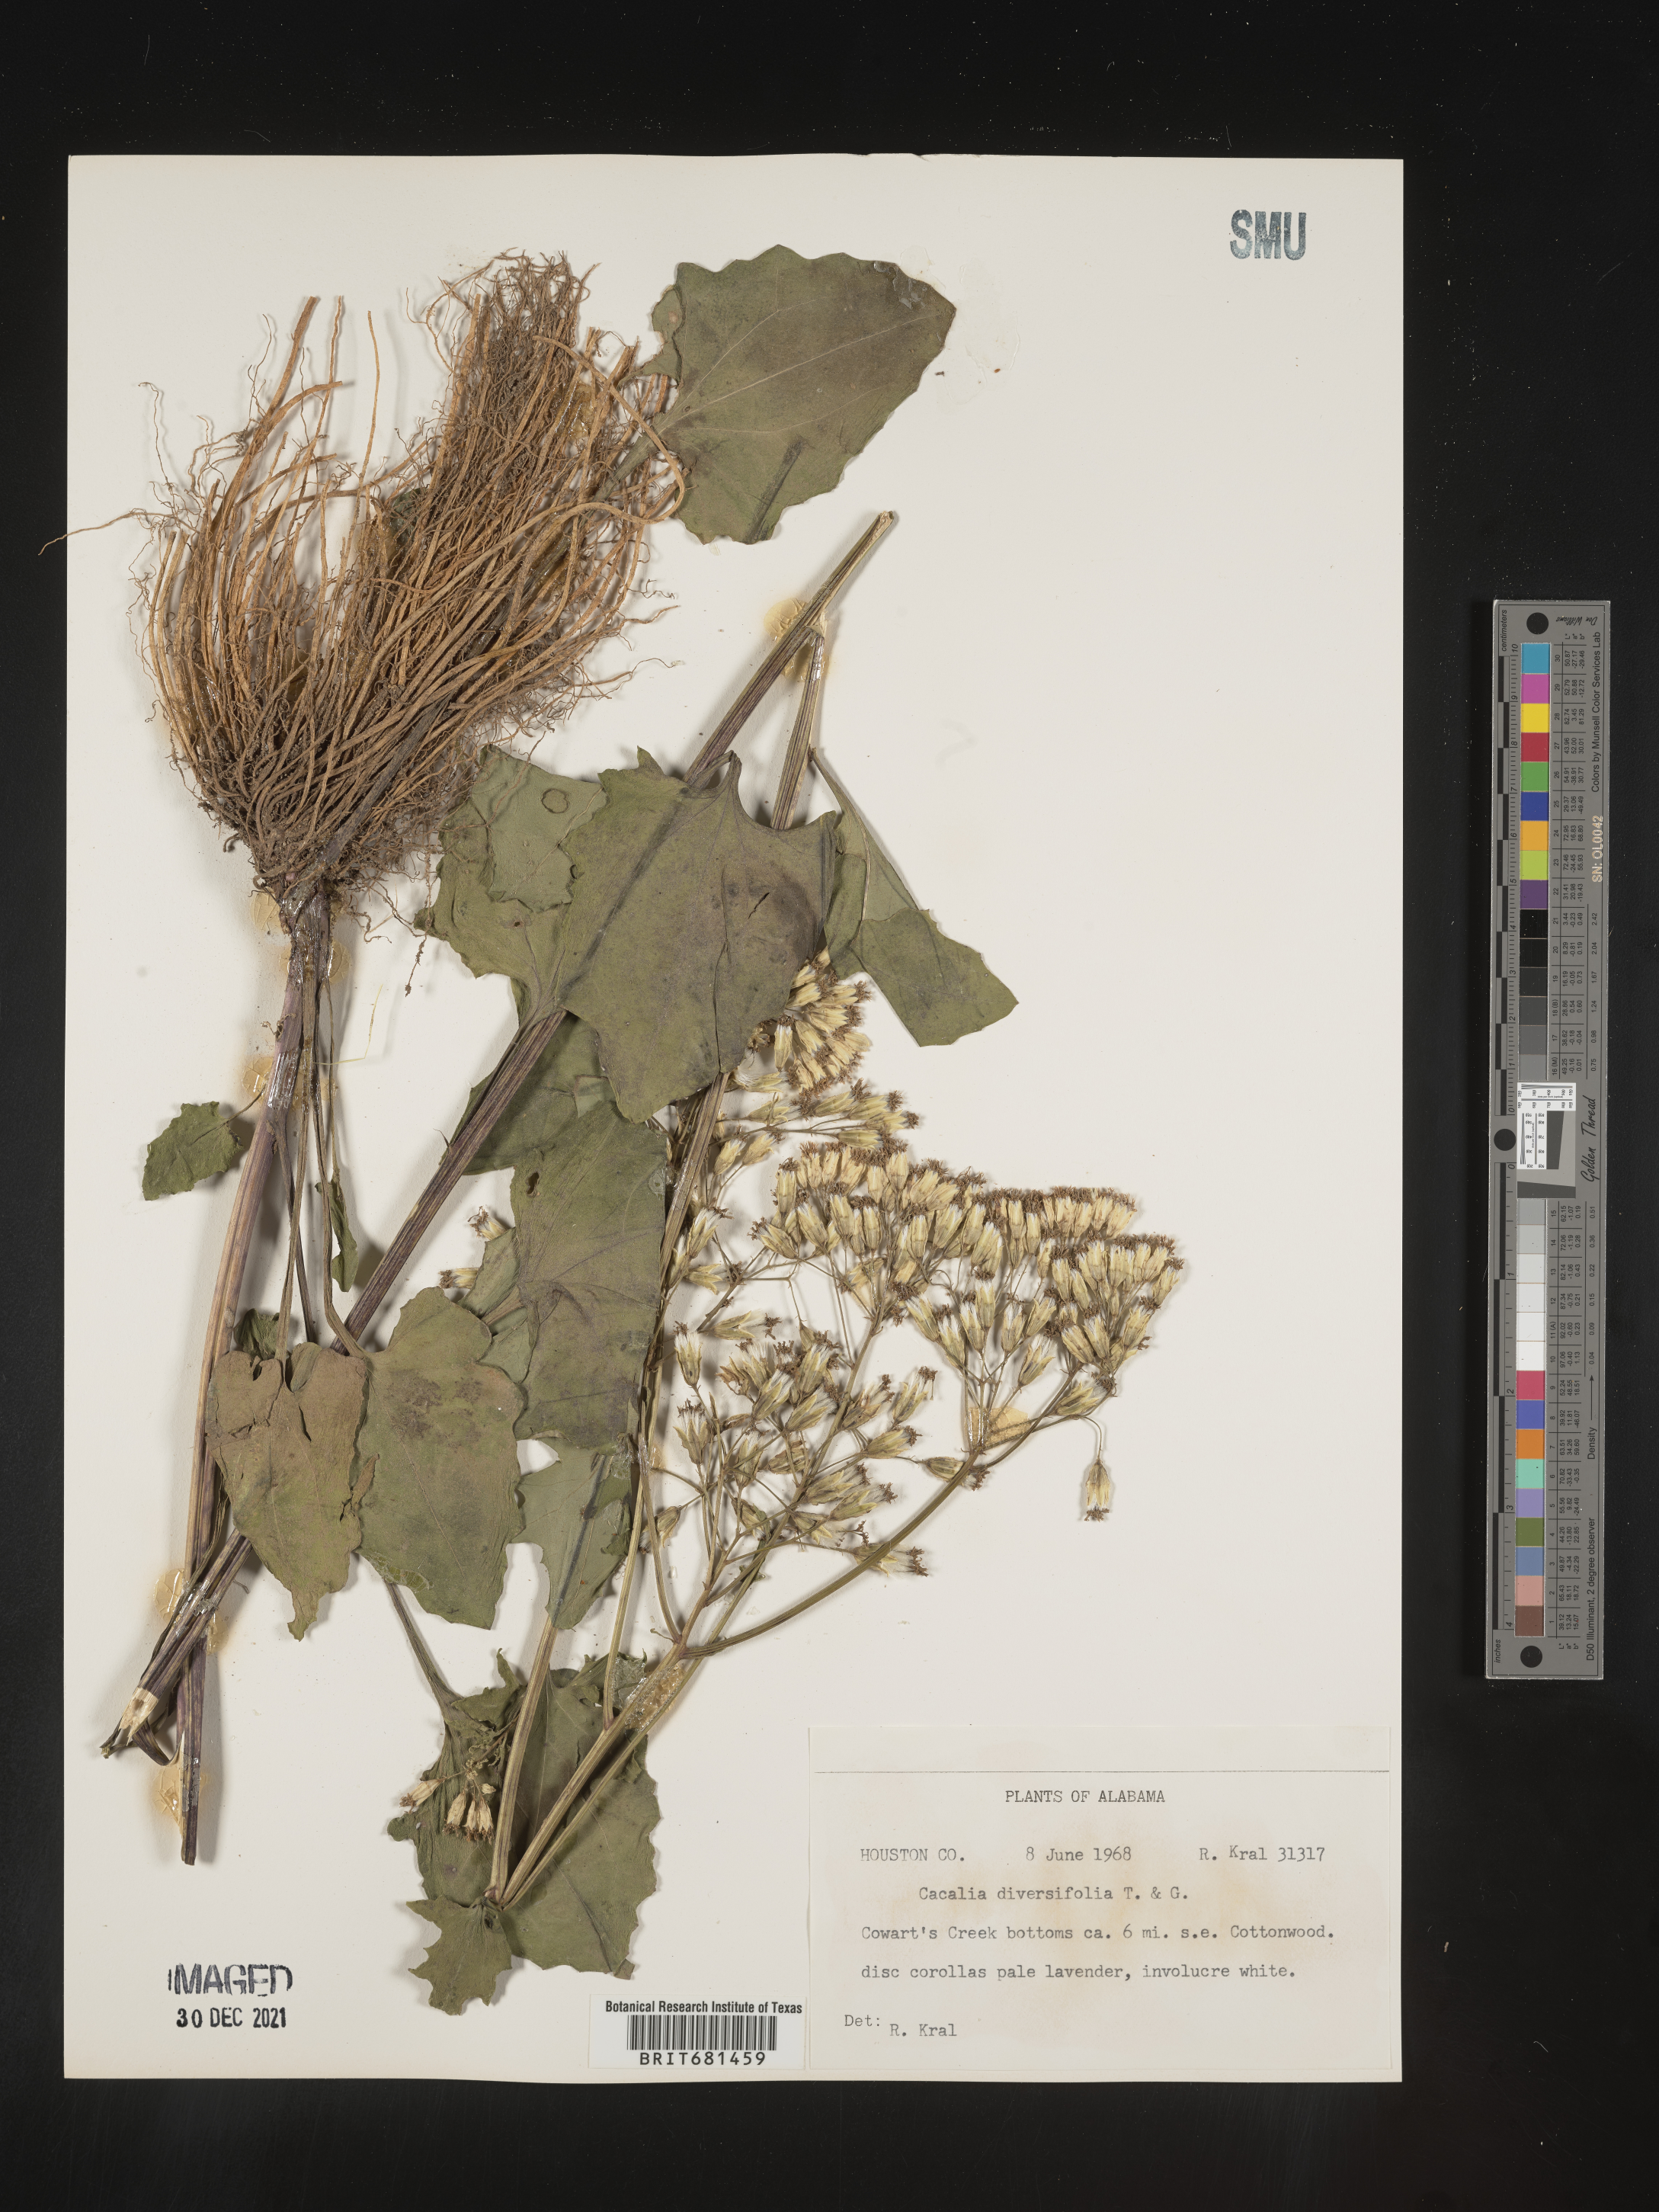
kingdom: Plantae
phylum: Tracheophyta
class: Magnoliopsida
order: Asterales
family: Asteraceae
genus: Arnoglossum
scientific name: Arnoglossum diversifolium
